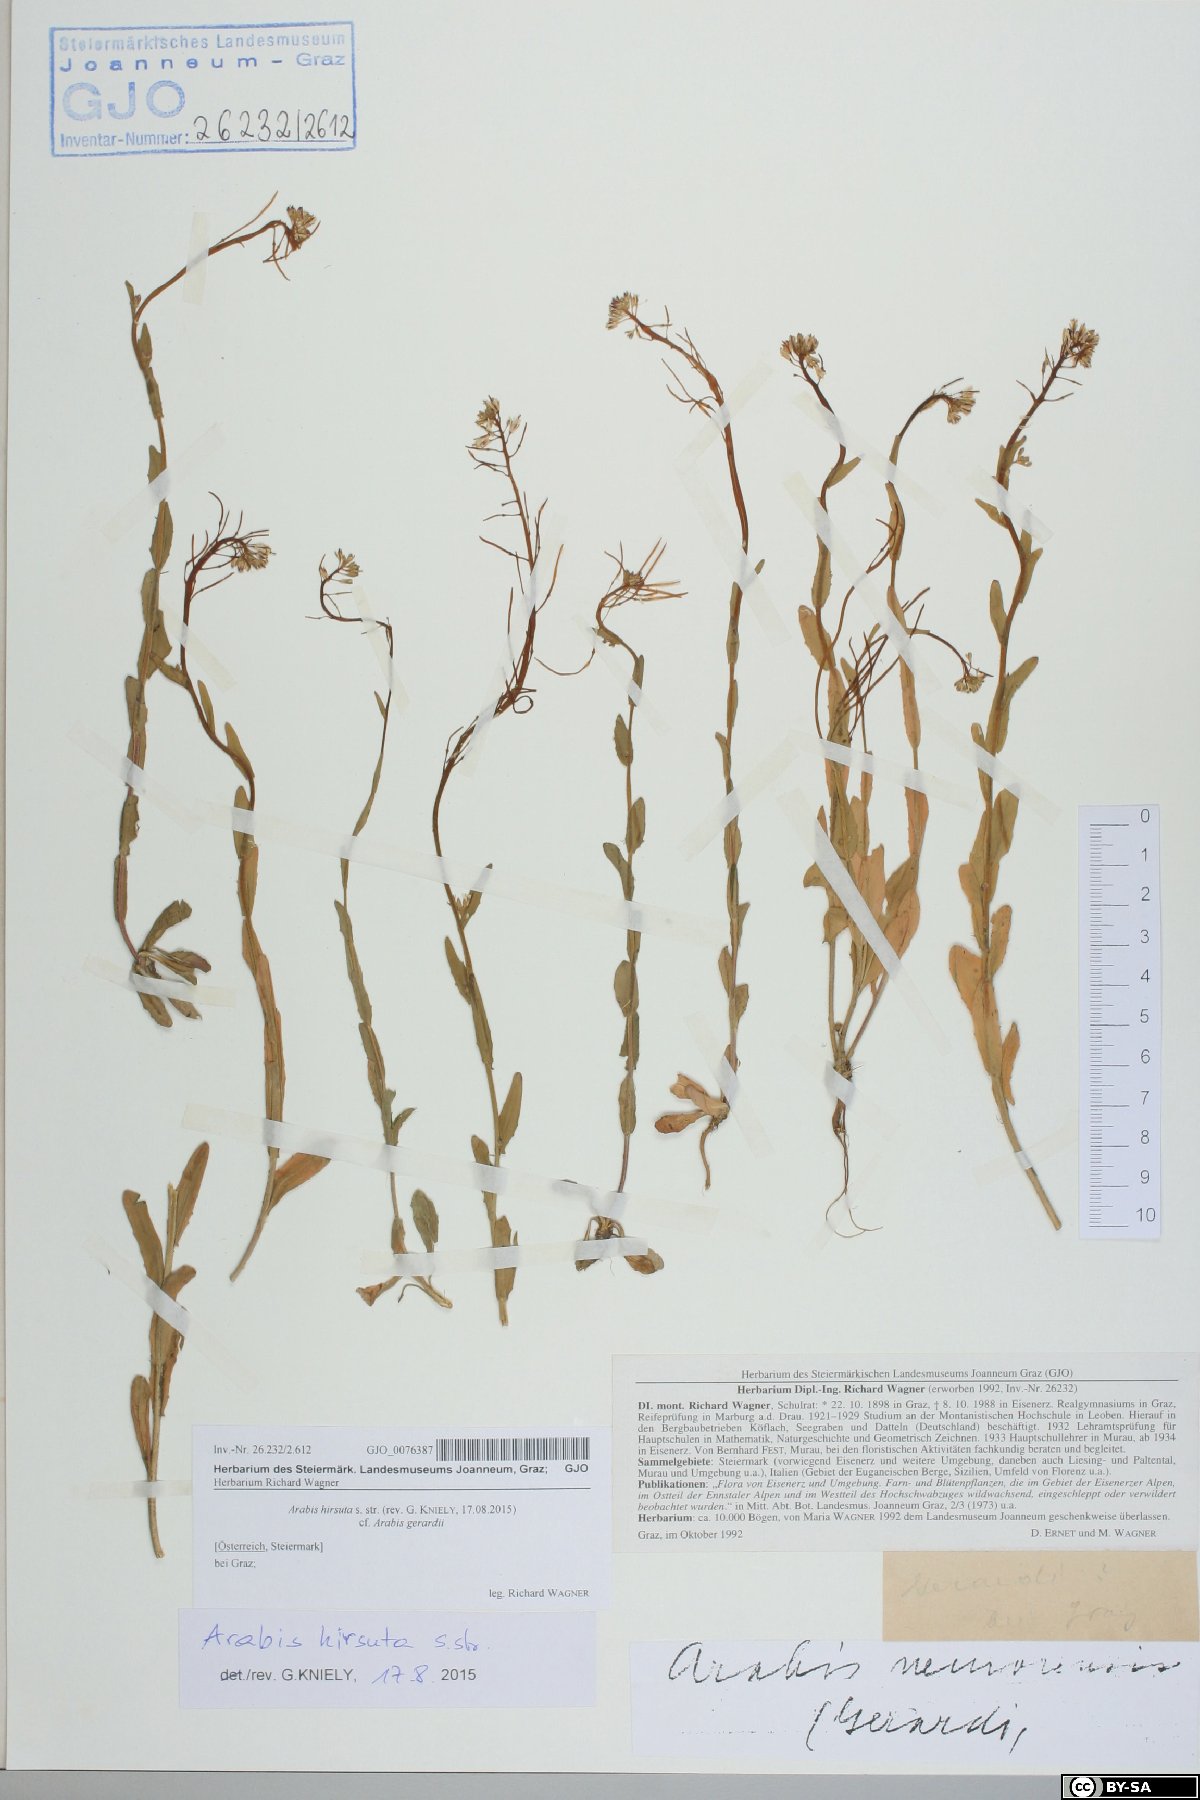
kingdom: Plantae
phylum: Tracheophyta
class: Magnoliopsida
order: Brassicales
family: Brassicaceae
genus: Arabis
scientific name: Arabis hirsuta
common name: Hairy rock-cress
